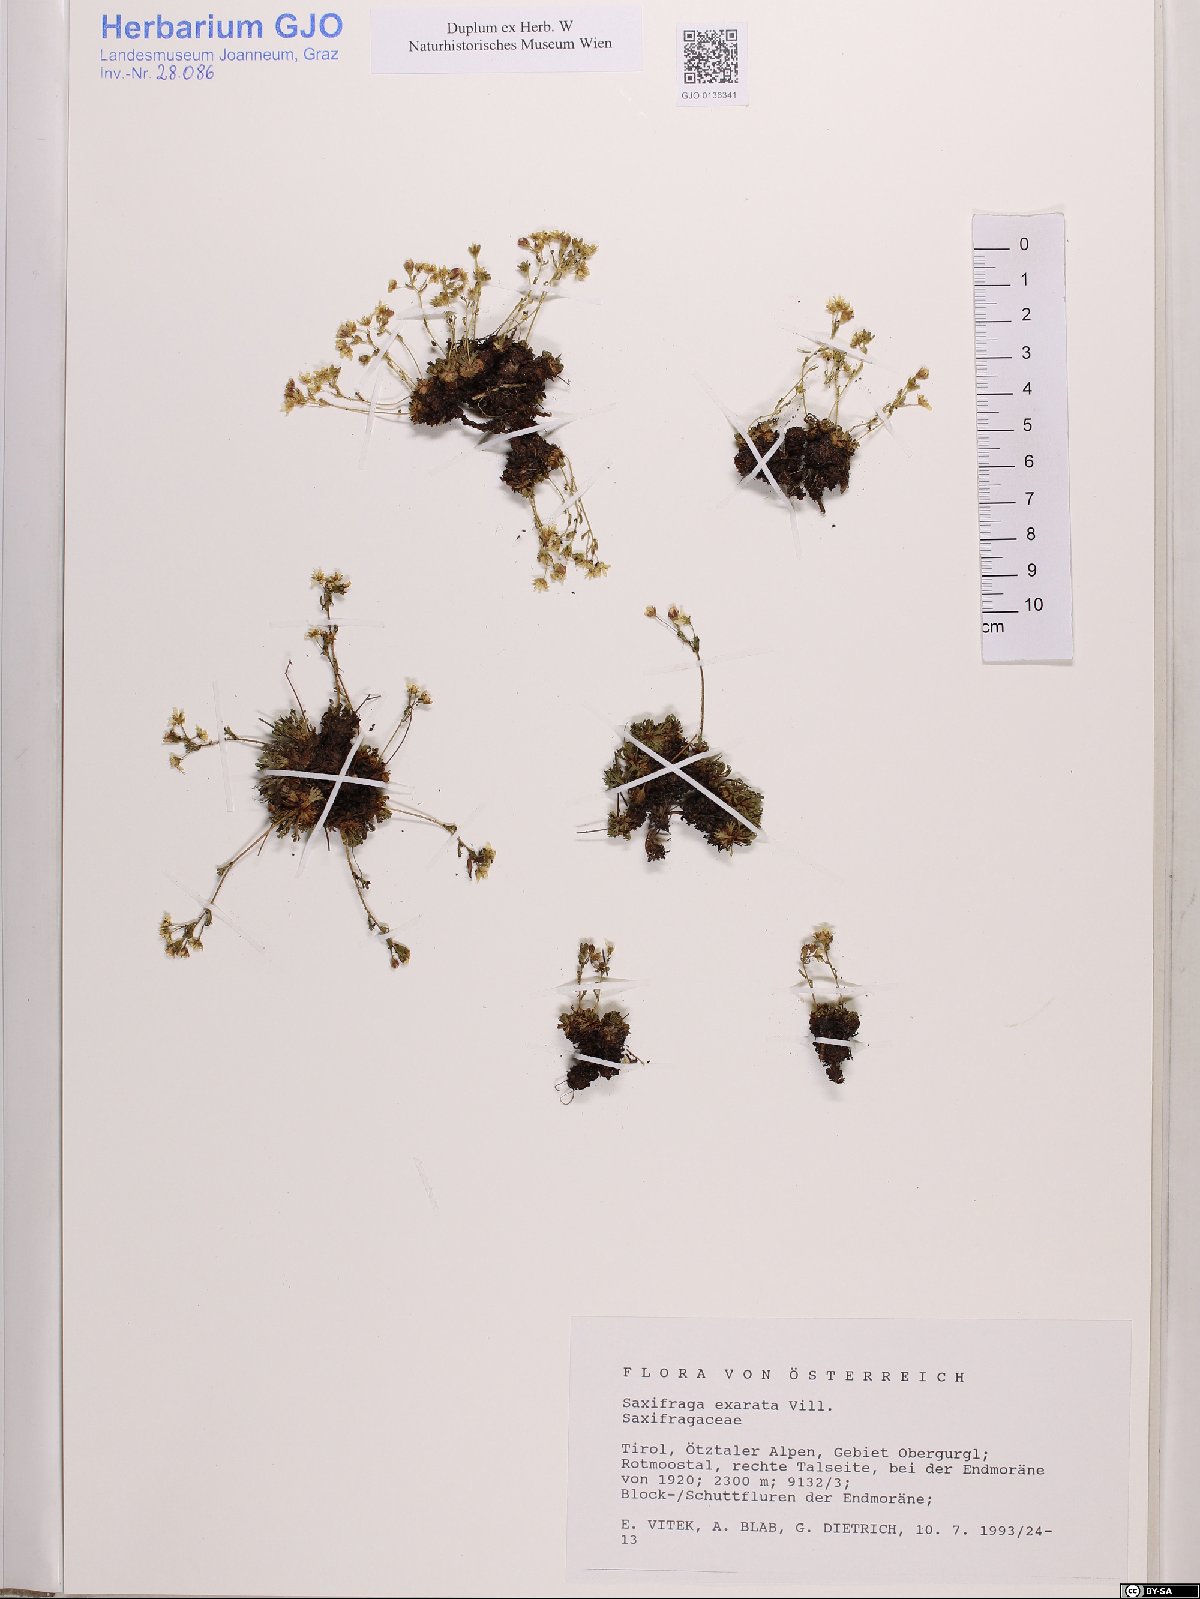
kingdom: Plantae
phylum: Tracheophyta
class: Magnoliopsida
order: Saxifragales
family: Saxifragaceae
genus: Saxifraga
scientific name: Saxifraga exarata
